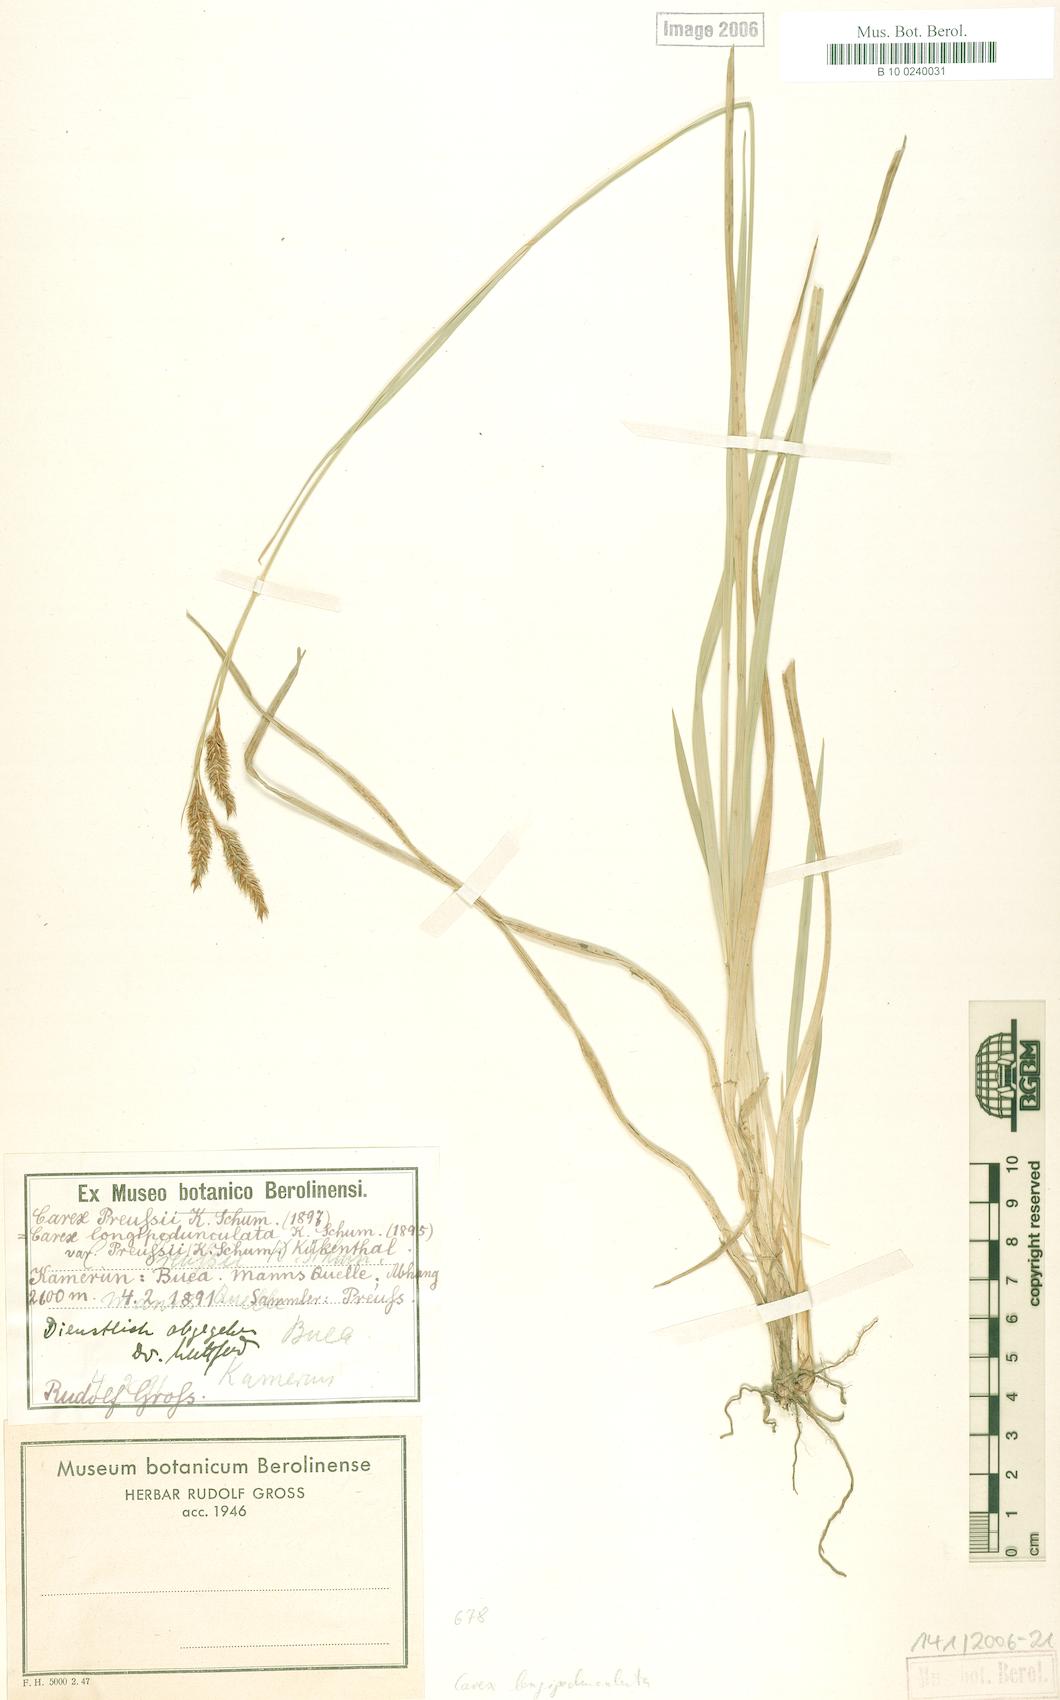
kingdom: Plantae
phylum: Tracheophyta
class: Liliopsida
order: Poales
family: Cyperaceae
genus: Carex
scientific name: Carex petitiana
